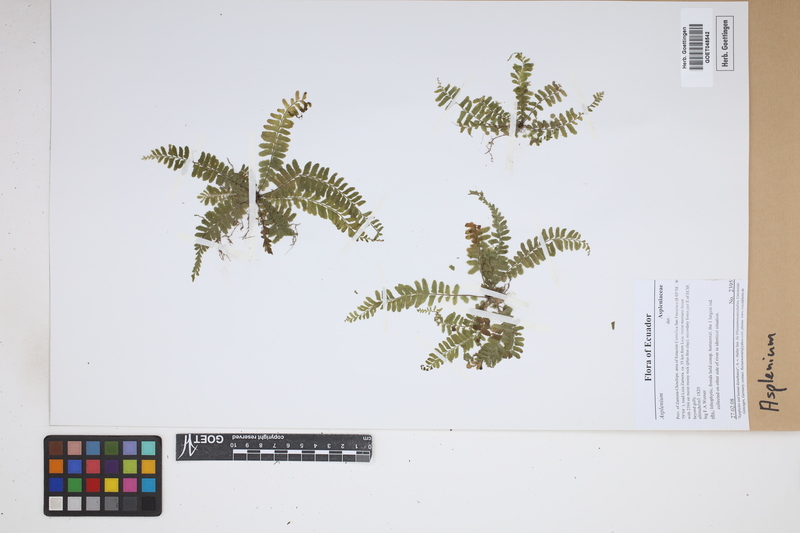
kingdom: Plantae
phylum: Tracheophyta
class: Polypodiopsida
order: Polypodiales
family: Aspleniaceae
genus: Asplenium
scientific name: Asplenium
